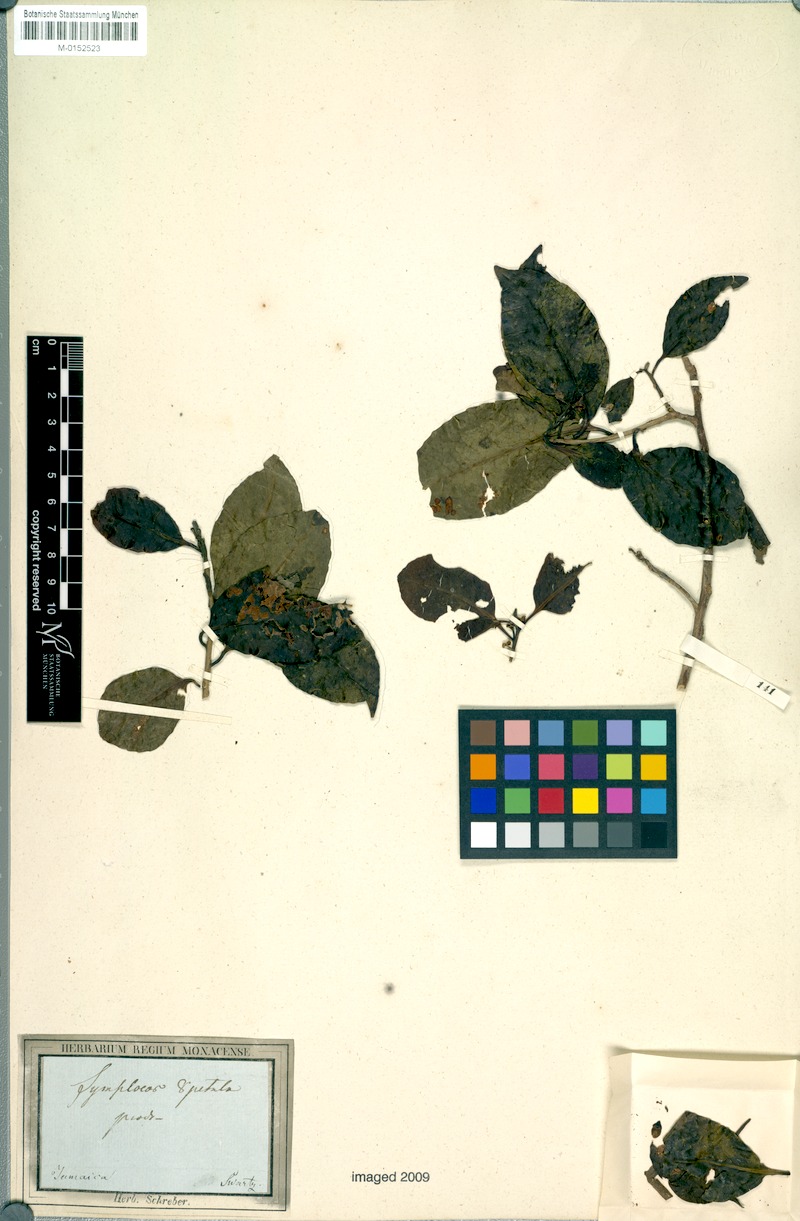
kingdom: Plantae
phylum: Tracheophyta
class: Magnoliopsida
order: Ericales
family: Symplocaceae
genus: Symplocos
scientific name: Symplocos octopetala
